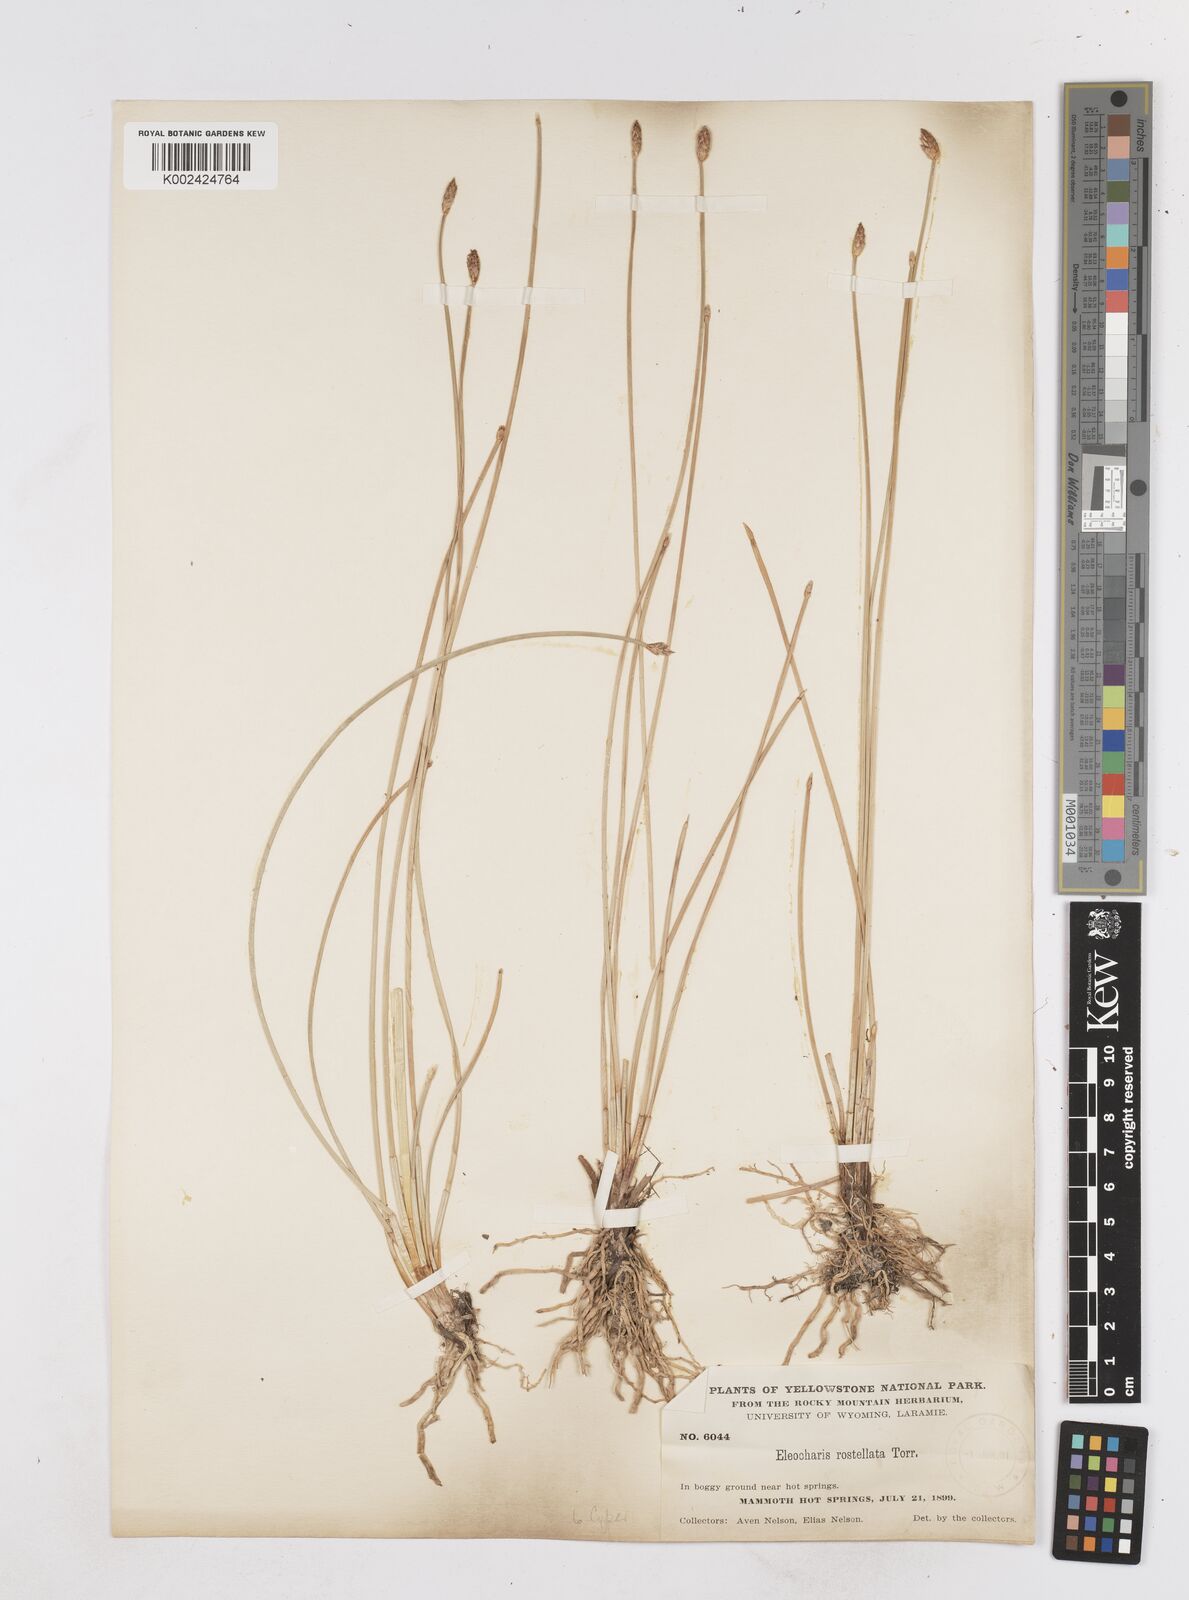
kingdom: Plantae
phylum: Tracheophyta
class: Liliopsida
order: Poales
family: Cyperaceae
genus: Eleocharis
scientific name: Eleocharis rostellata
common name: Walking sedge
